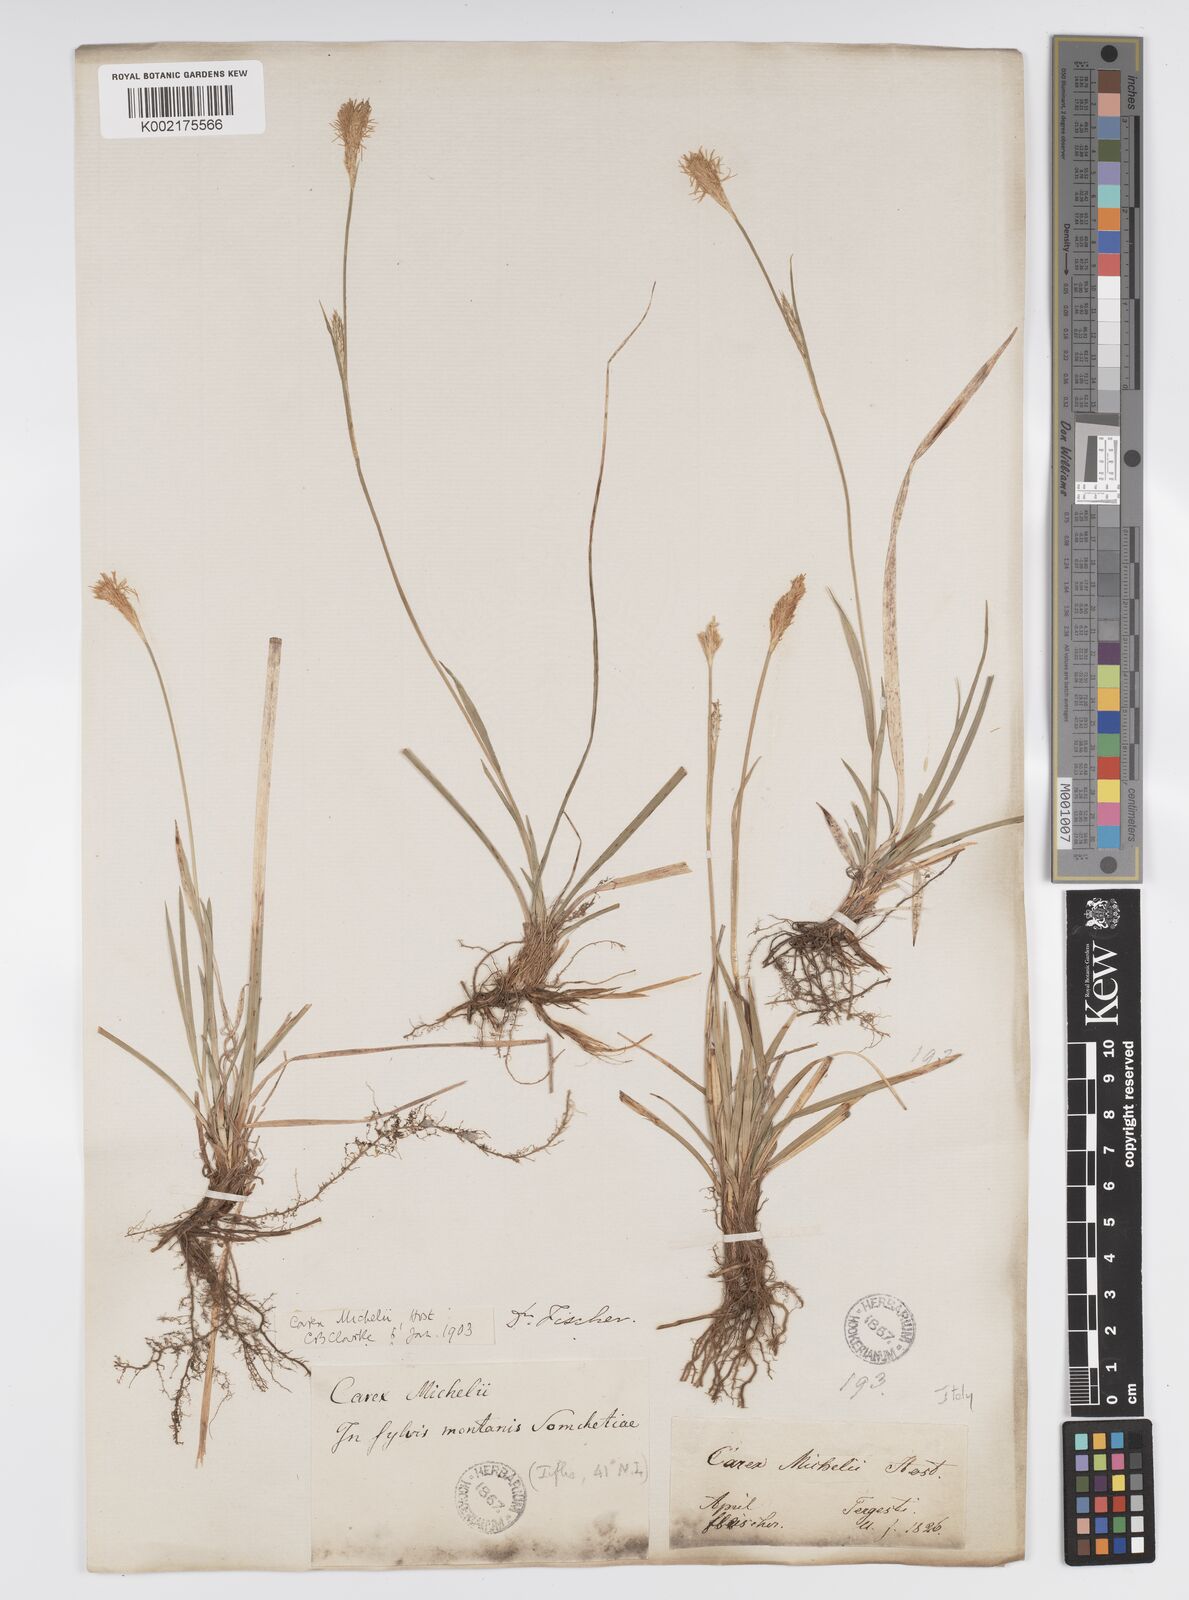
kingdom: Plantae
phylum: Tracheophyta
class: Liliopsida
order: Poales
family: Cyperaceae
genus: Carex
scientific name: Carex michelii
